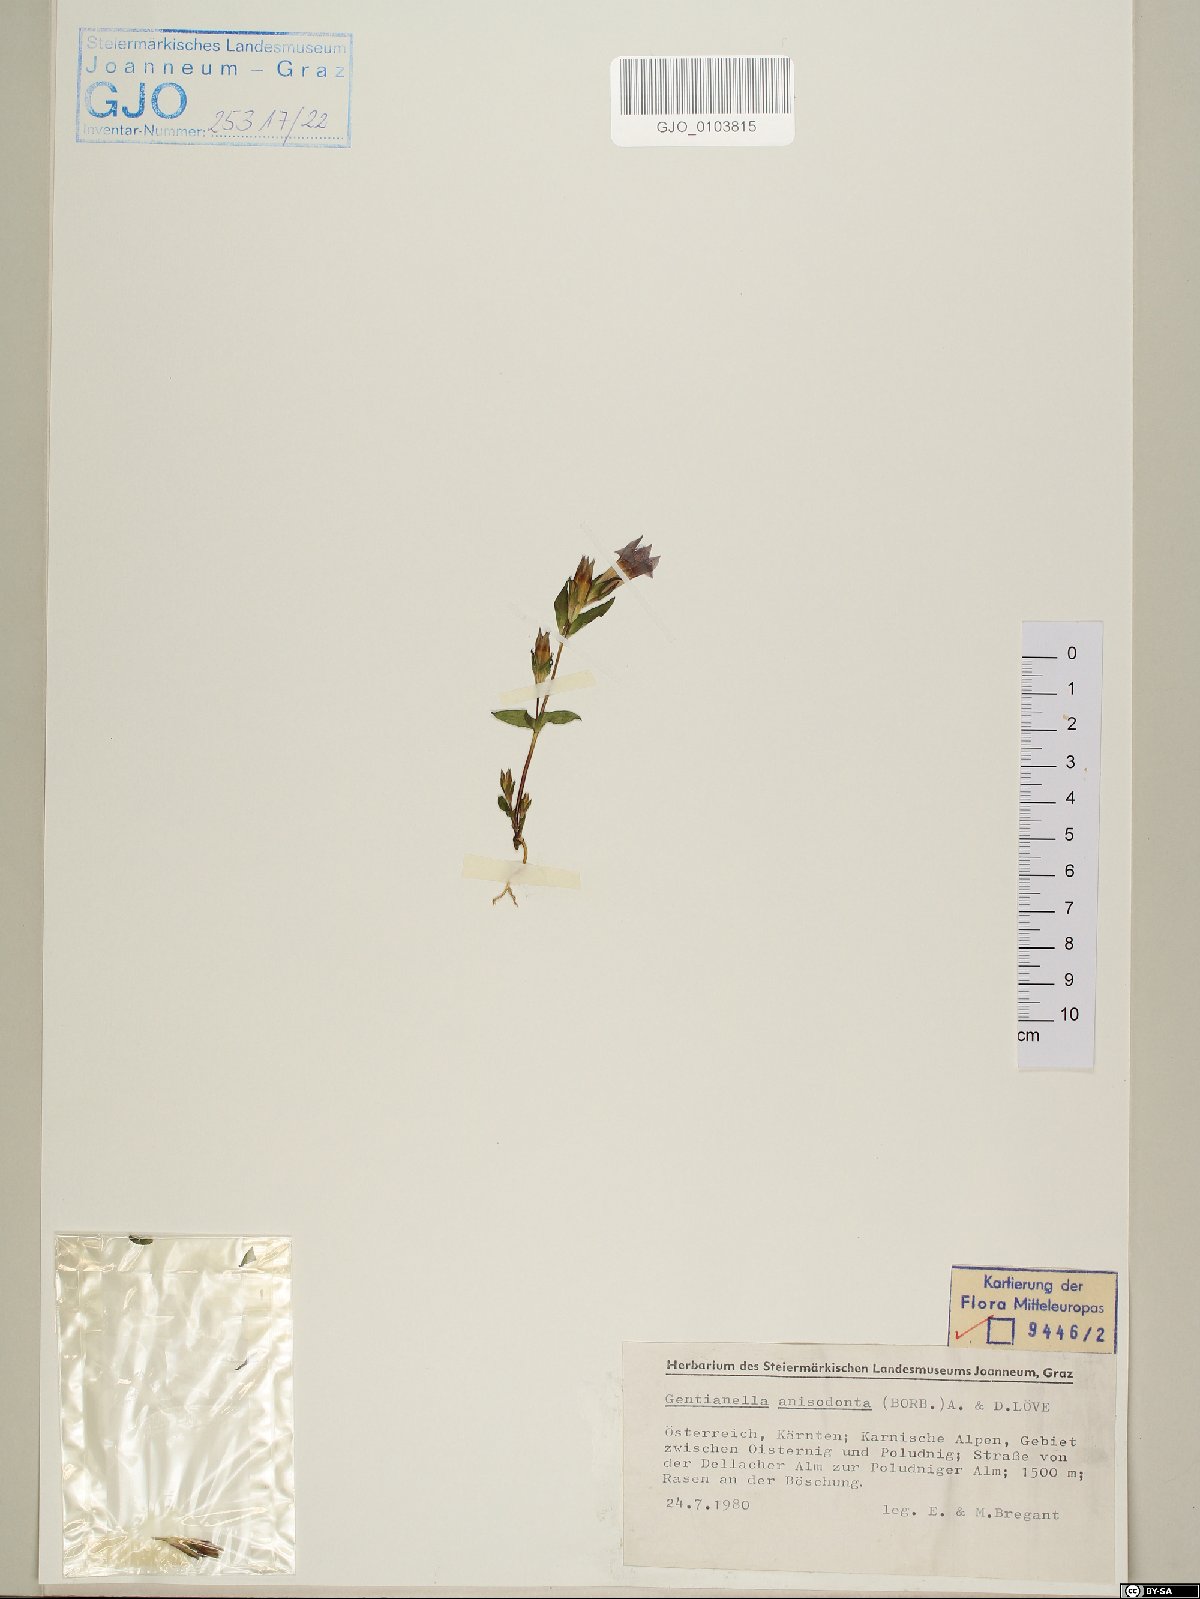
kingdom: Plantae
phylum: Tracheophyta
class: Magnoliopsida
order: Gentianales
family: Gentianaceae
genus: Gentianella
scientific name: Gentianella anisodonta
